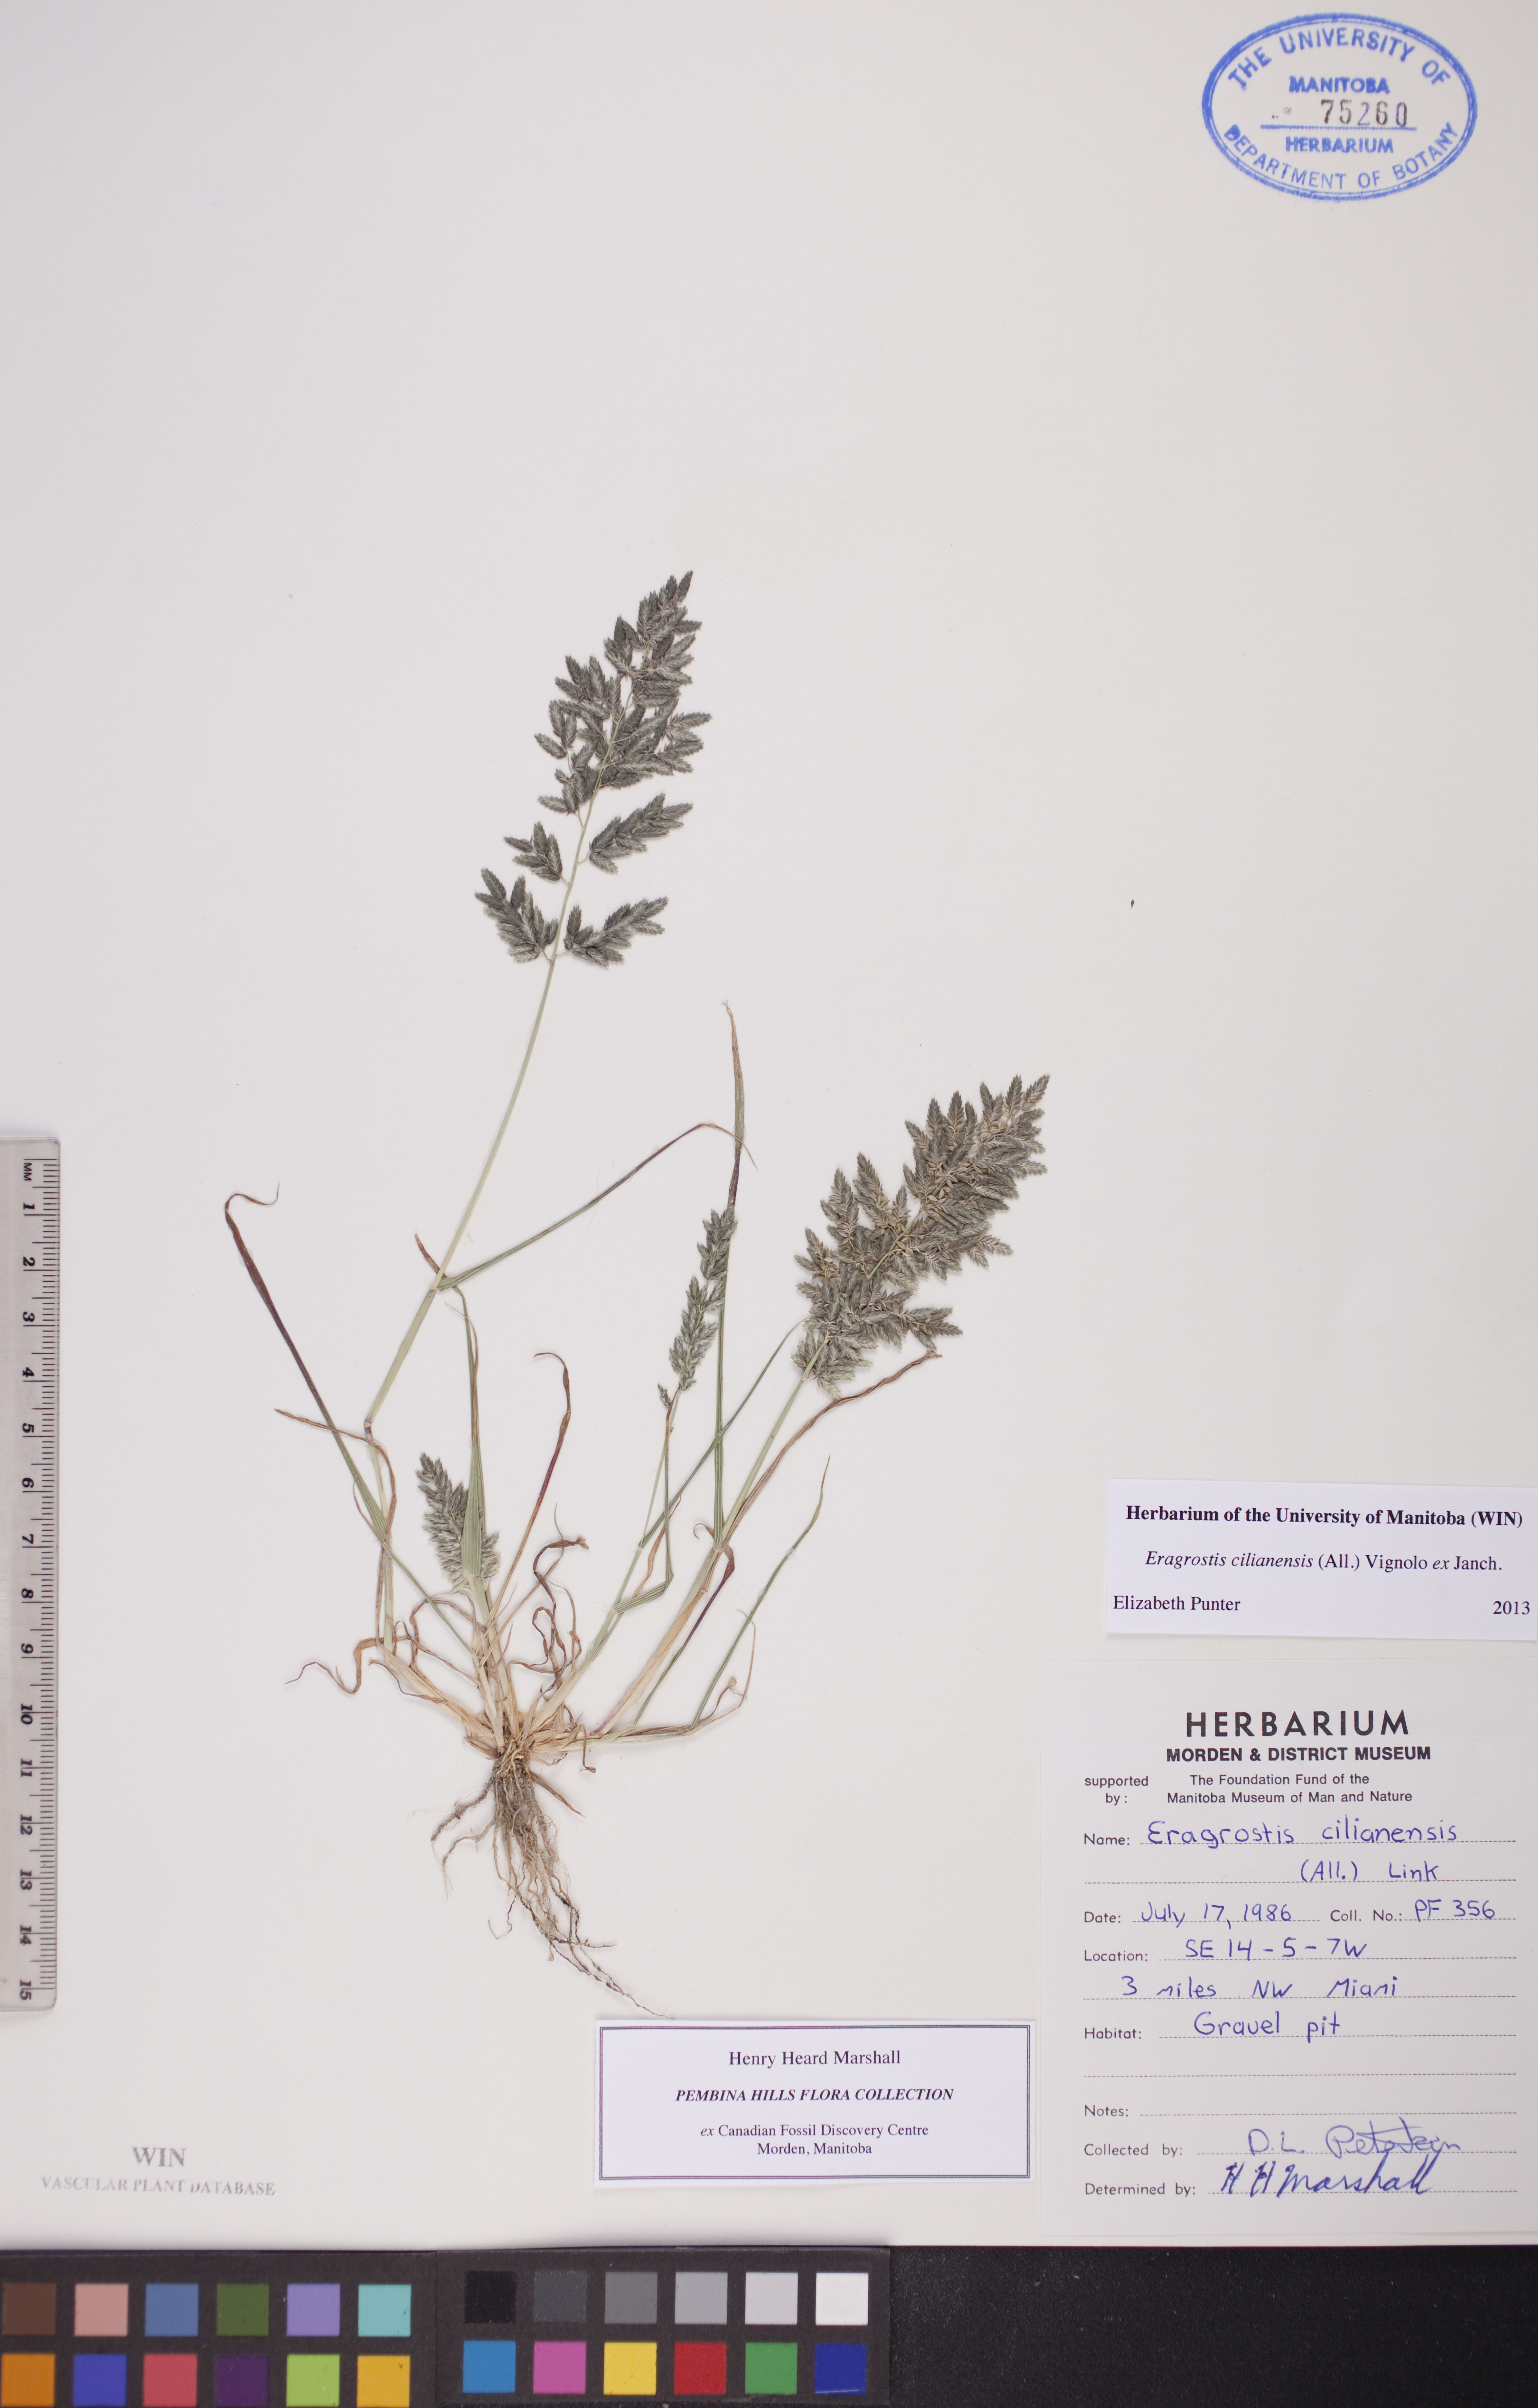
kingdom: Plantae
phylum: Tracheophyta
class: Liliopsida
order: Poales
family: Poaceae
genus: Eragrostis
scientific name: Eragrostis cilianensis
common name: Stinkgrass
